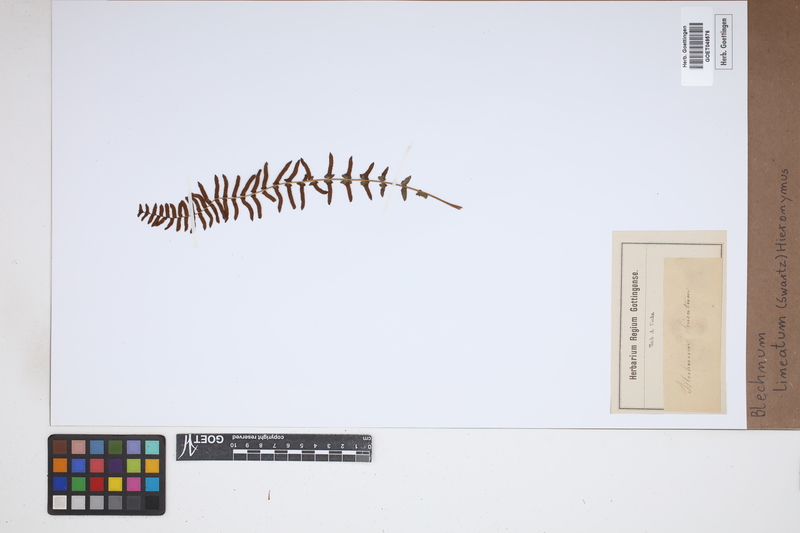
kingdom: Plantae
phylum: Tracheophyta
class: Polypodiopsida
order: Polypodiales
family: Blechnaceae
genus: Parablechnum
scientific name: Parablechnum lineatum
